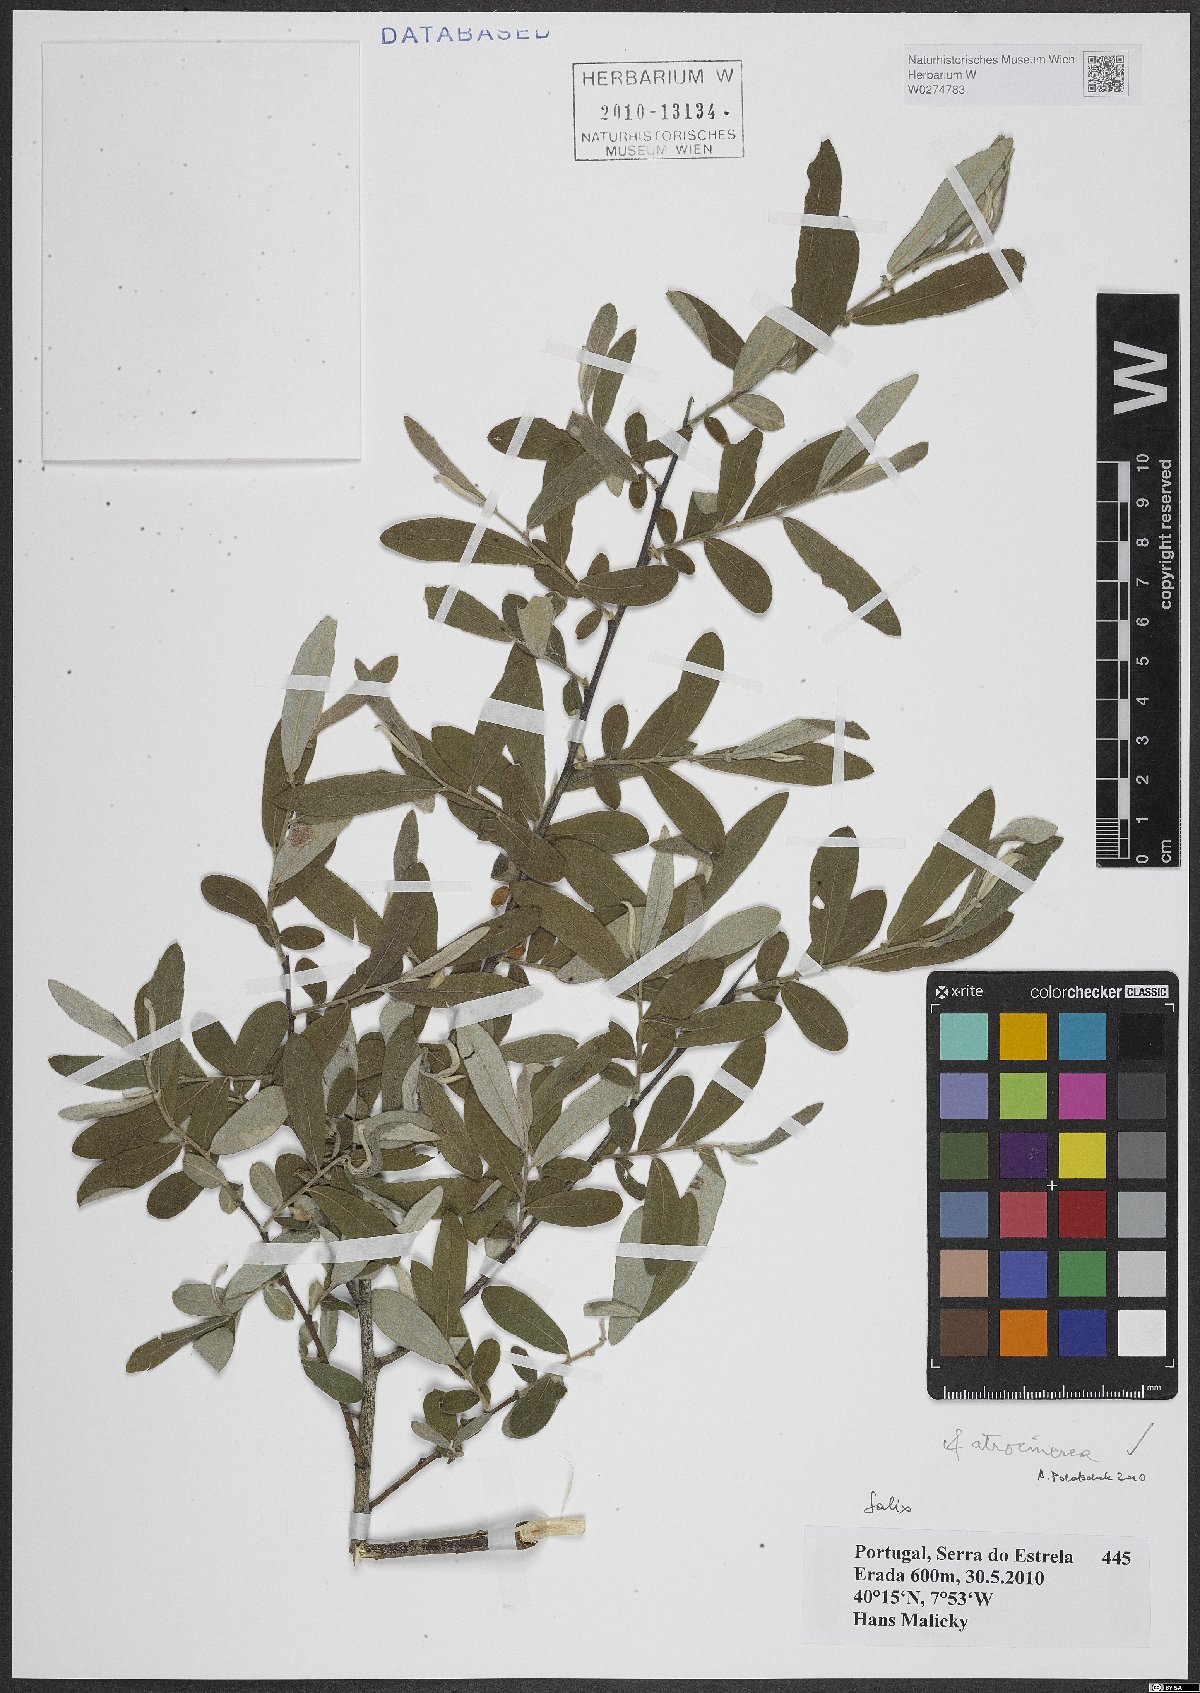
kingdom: Plantae
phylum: Tracheophyta
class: Magnoliopsida
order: Malpighiales
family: Salicaceae
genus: Salix
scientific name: Salix atrocinerea
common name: Rusty willow
